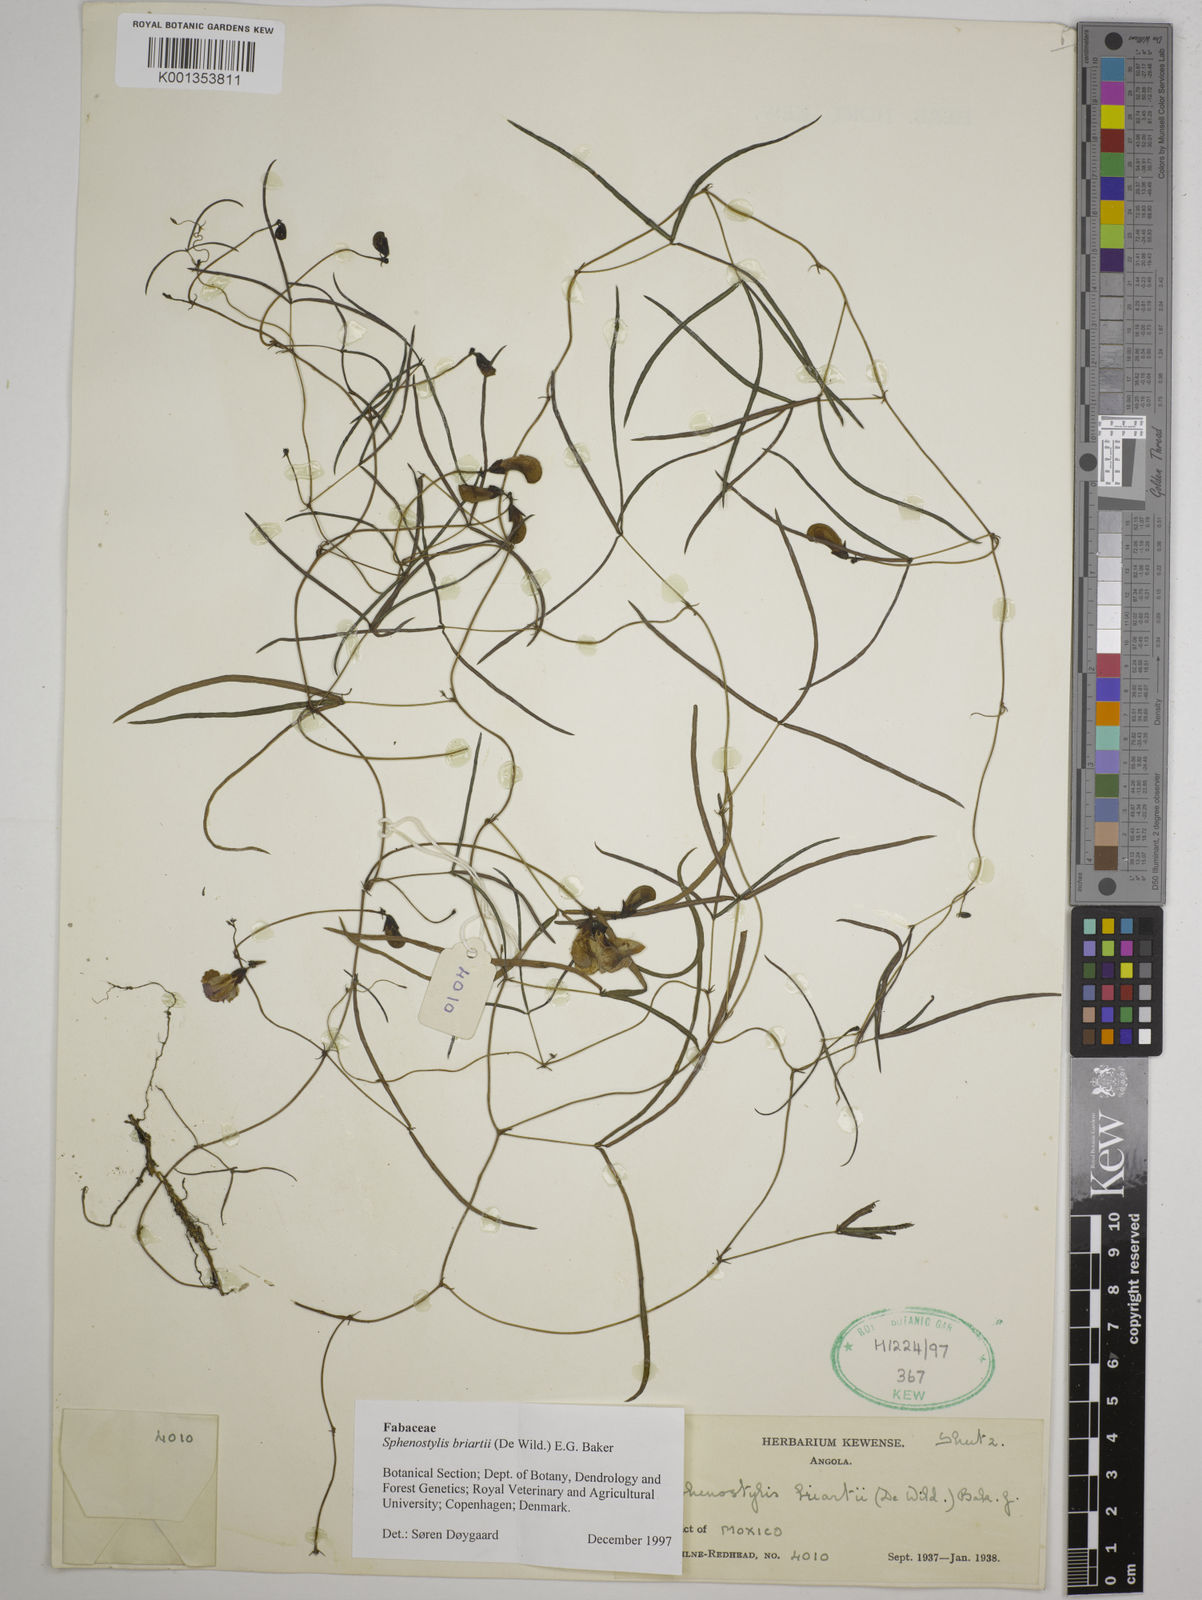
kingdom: Plantae
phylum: Tracheophyta
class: Magnoliopsida
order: Fabales
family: Fabaceae
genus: Sphenostylis
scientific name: Sphenostylis briartii
